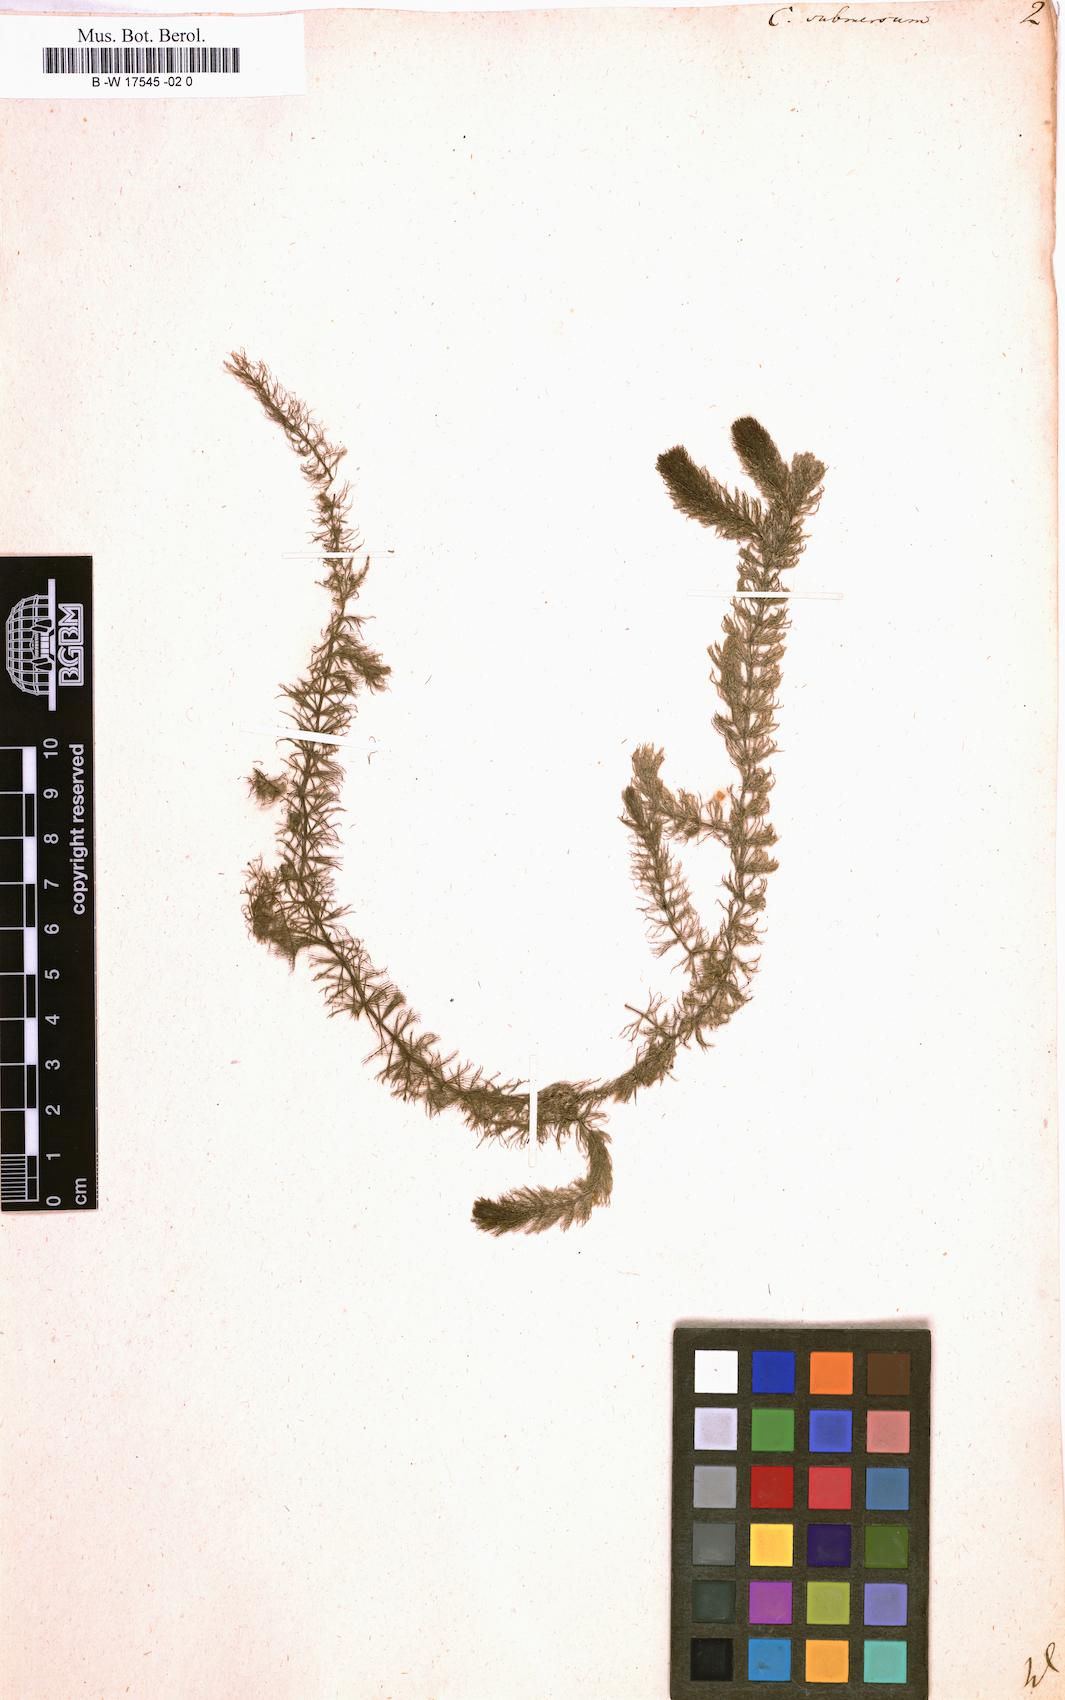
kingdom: Plantae
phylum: Tracheophyta
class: Magnoliopsida
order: Ceratophyllales
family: Ceratophyllaceae
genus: Ceratophyllum
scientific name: Ceratophyllum submersum
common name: Soft hornwort
